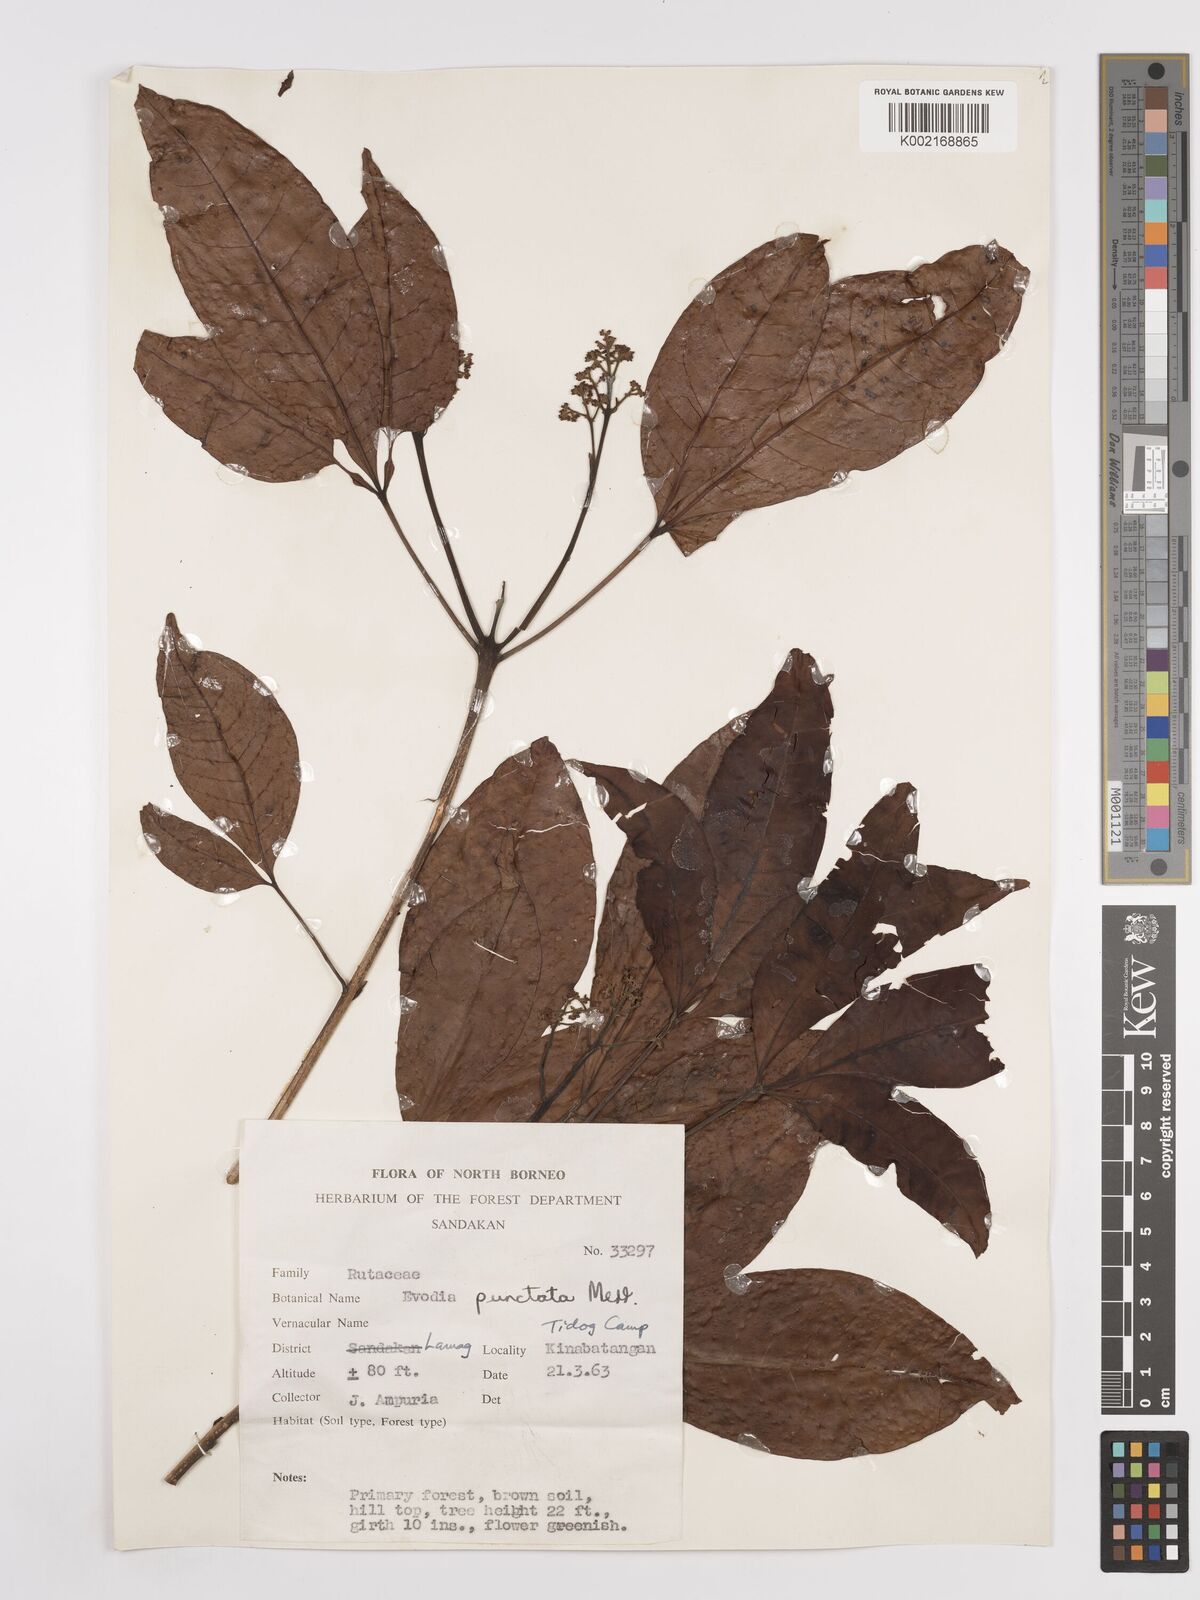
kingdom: Plantae
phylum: Tracheophyta
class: Magnoliopsida
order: Sapindales
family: Rutaceae
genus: Melicope
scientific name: Melicope lunu-ankenda
